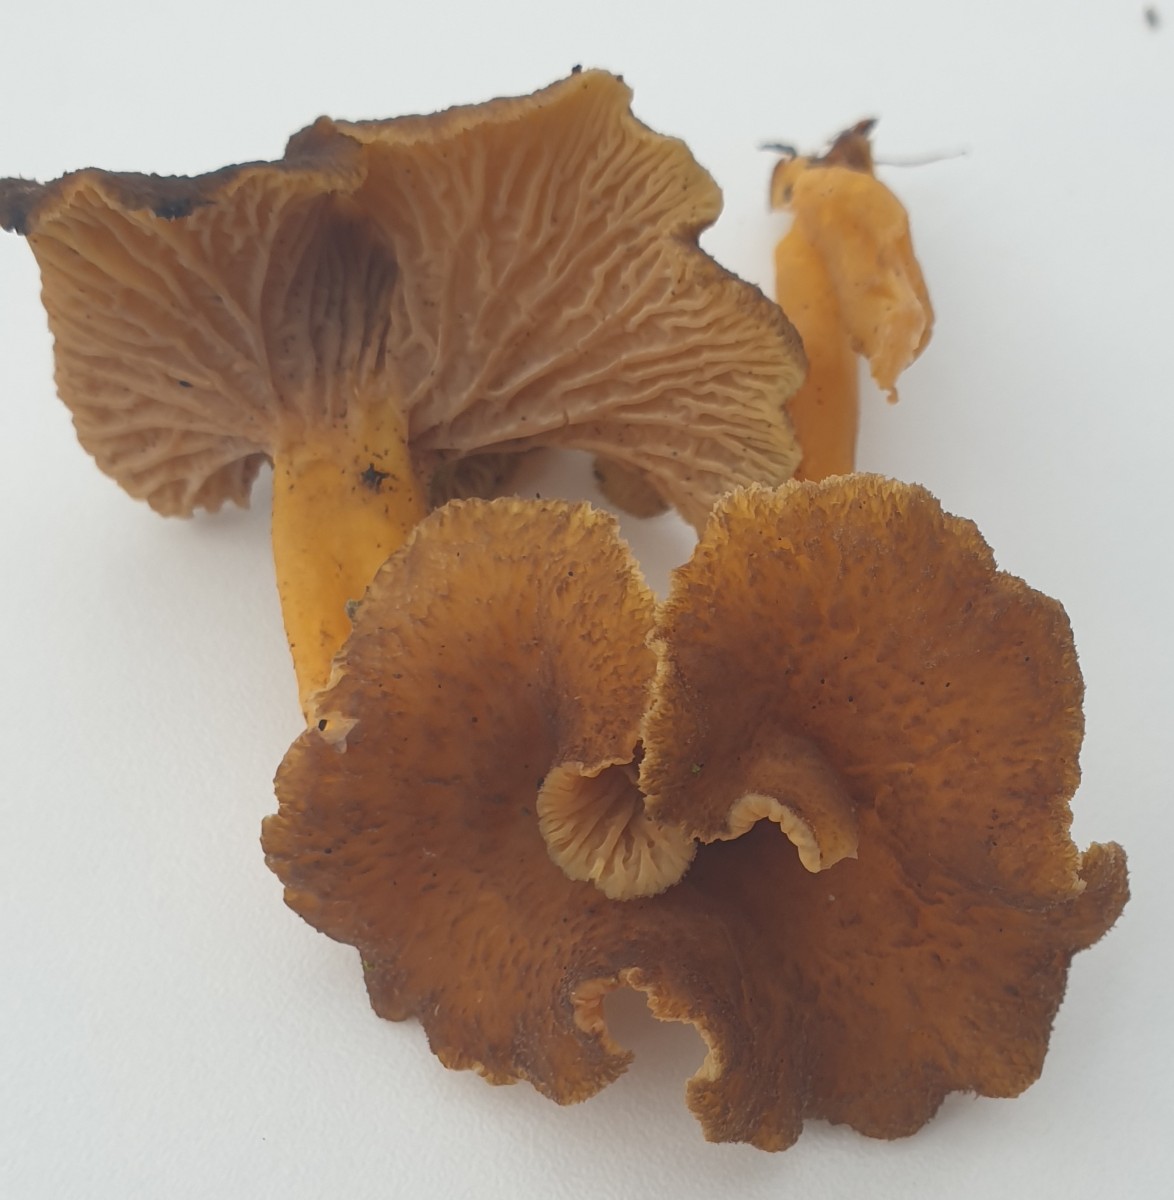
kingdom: Fungi
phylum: Basidiomycota
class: Agaricomycetes
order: Cantharellales
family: Hydnaceae
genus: Craterellus
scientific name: Craterellus tubaeformis
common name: tragt-kantarel
